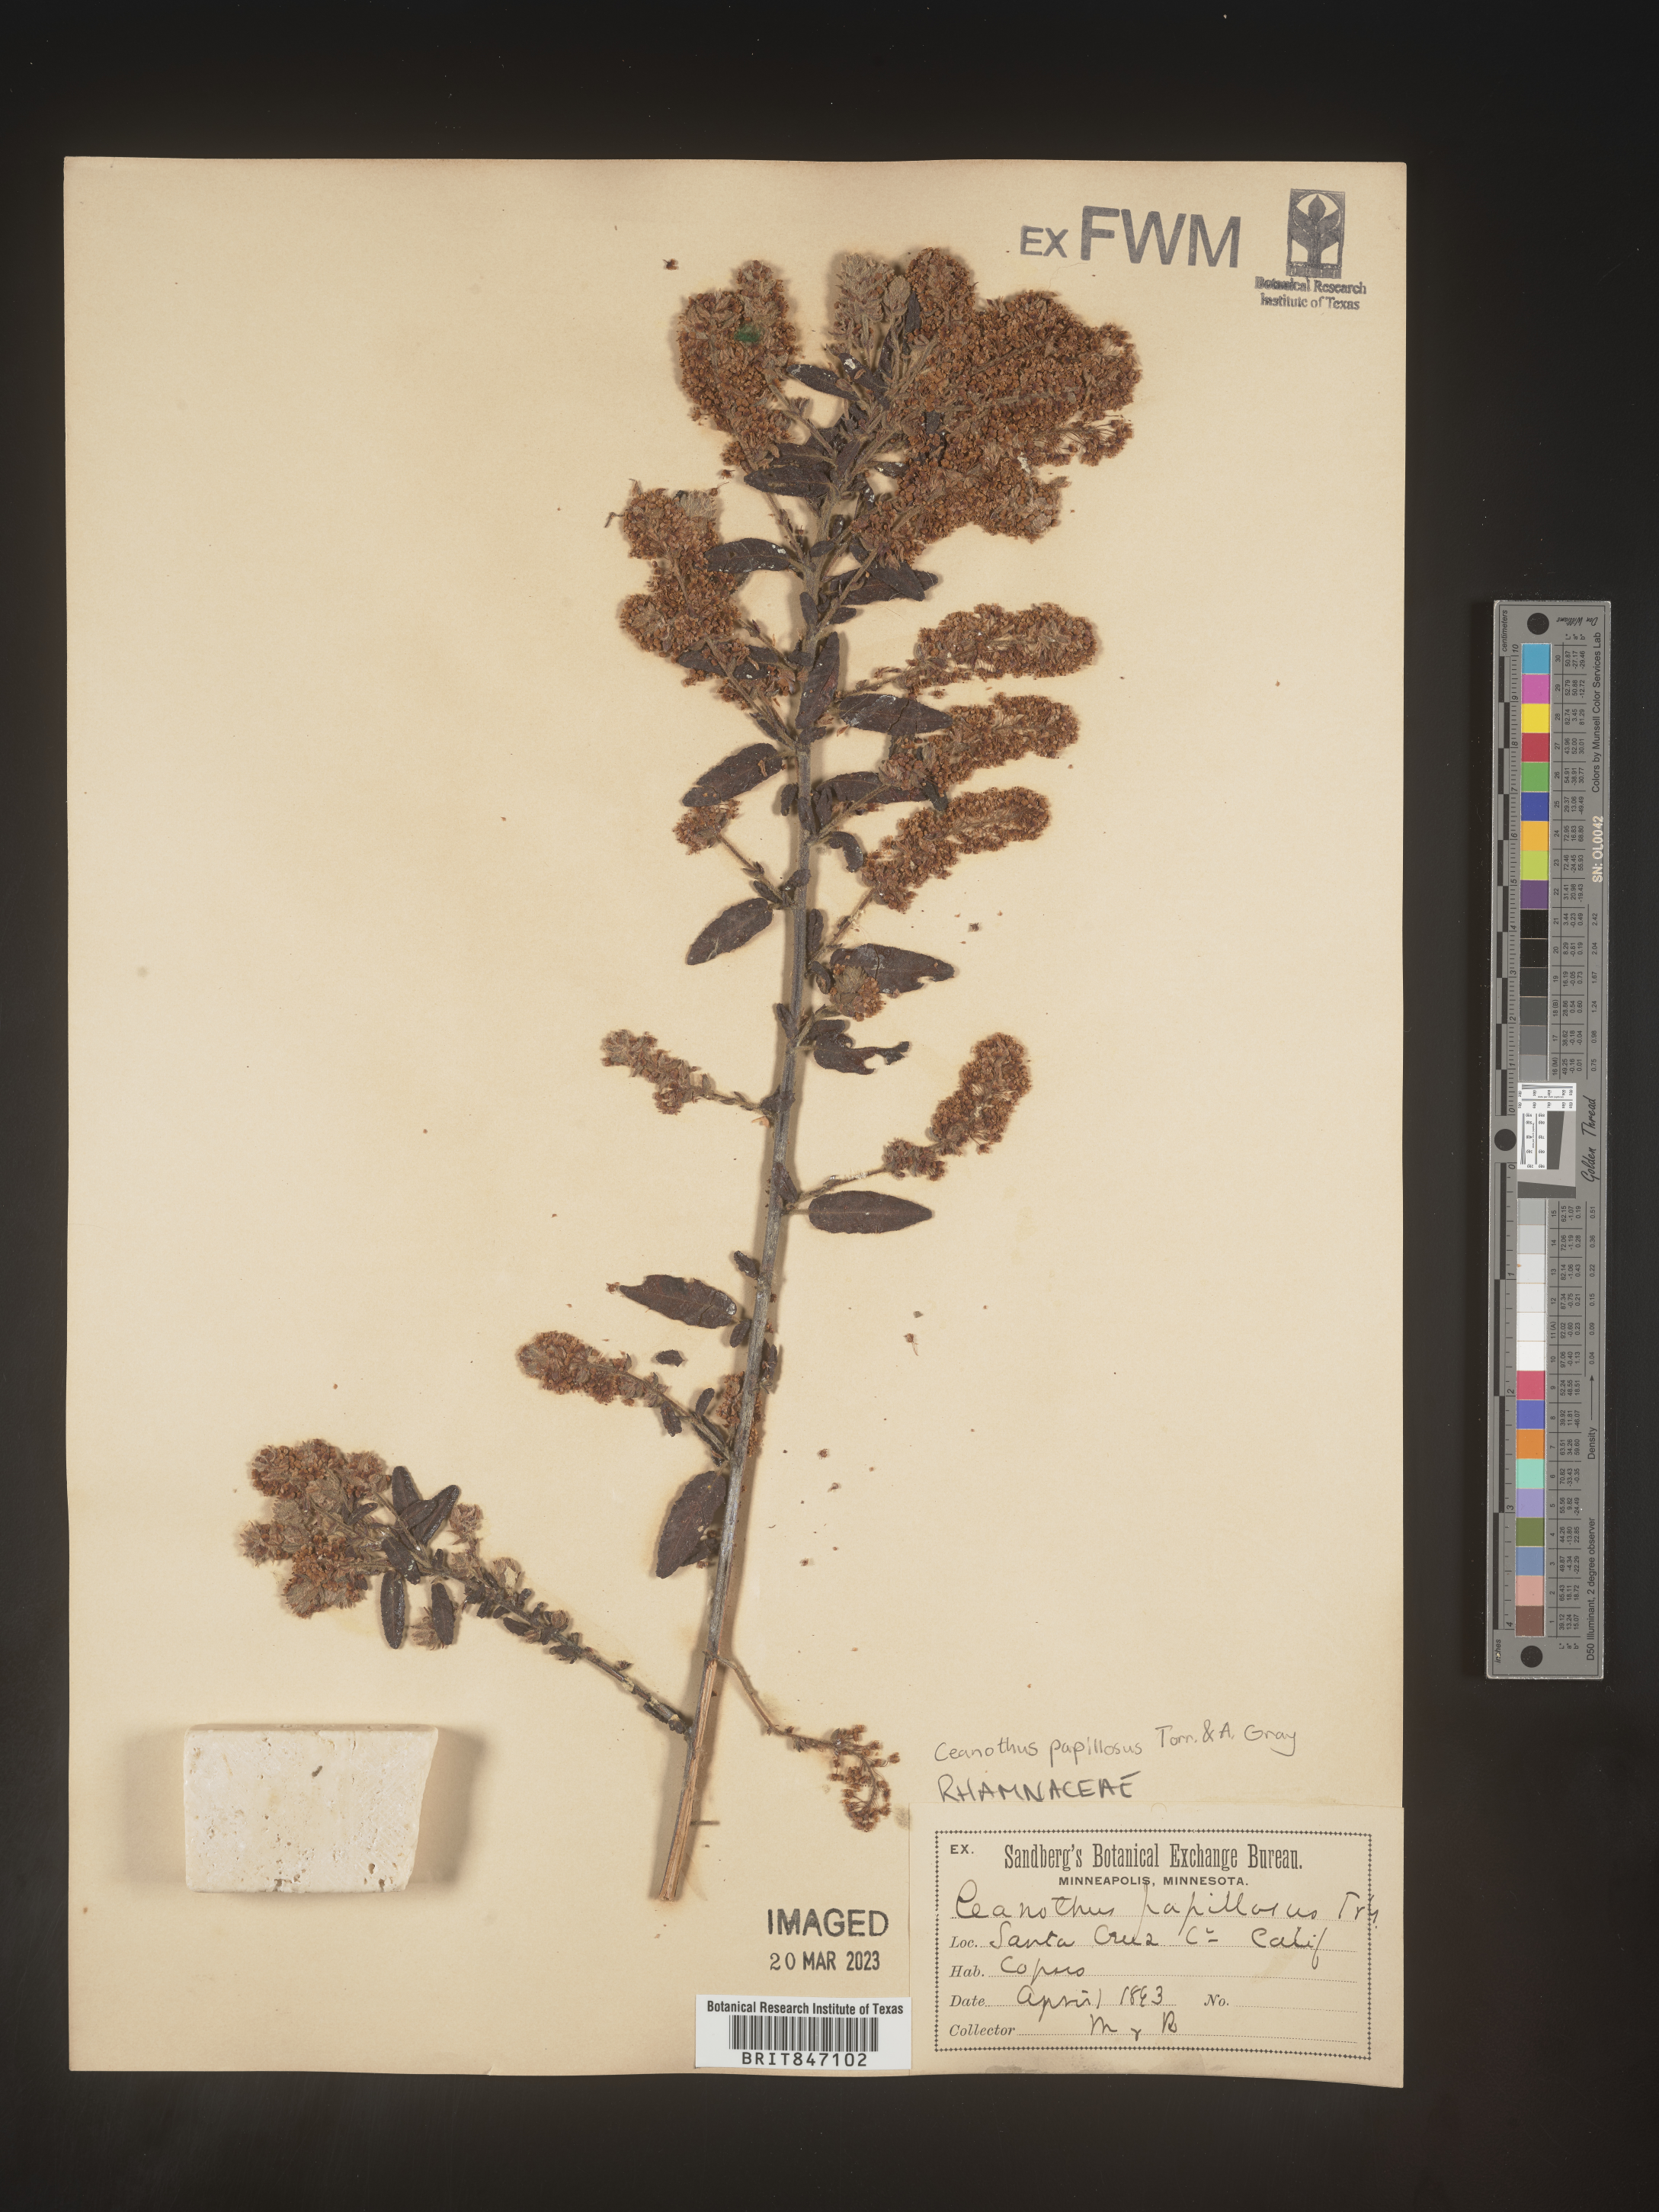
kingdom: Plantae
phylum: Tracheophyta
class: Magnoliopsida
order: Rosales
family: Rhamnaceae
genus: Ceanothus
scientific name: Ceanothus
